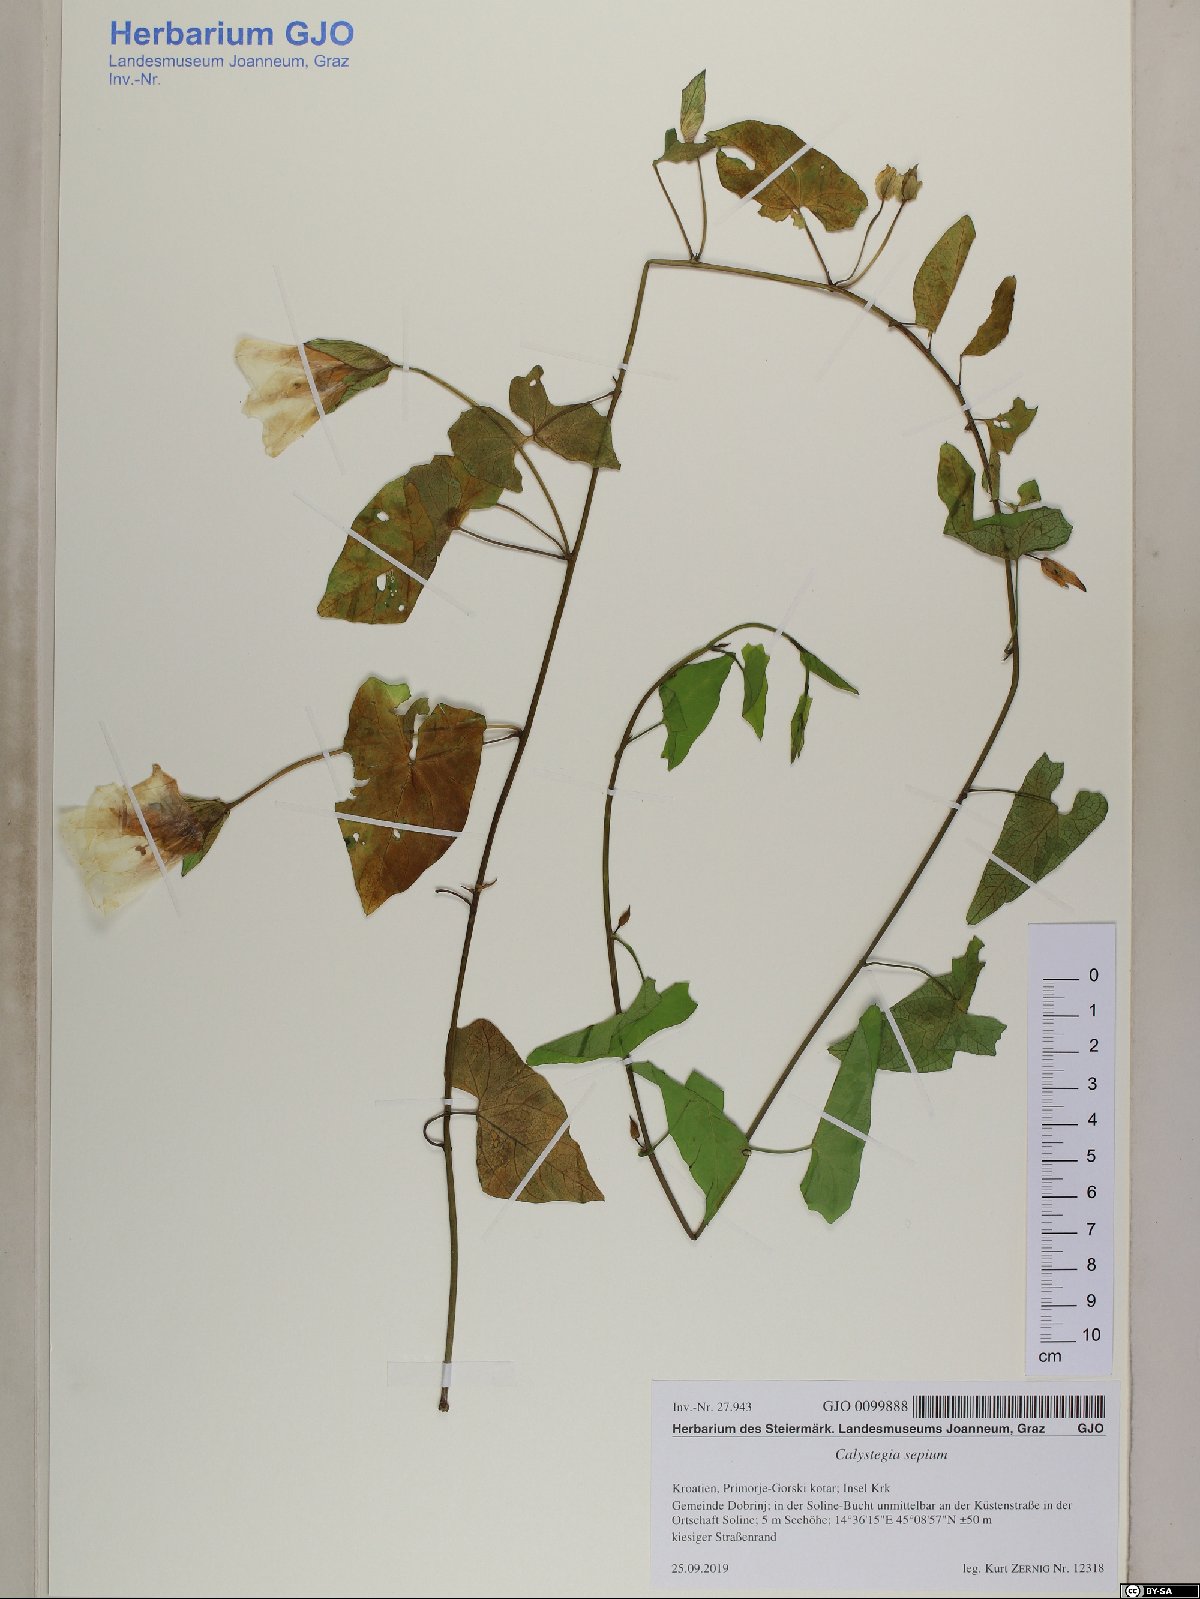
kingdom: Plantae
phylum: Tracheophyta
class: Magnoliopsida
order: Solanales
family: Convolvulaceae
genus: Calystegia
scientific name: Calystegia sepium
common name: Hedge bindweed
